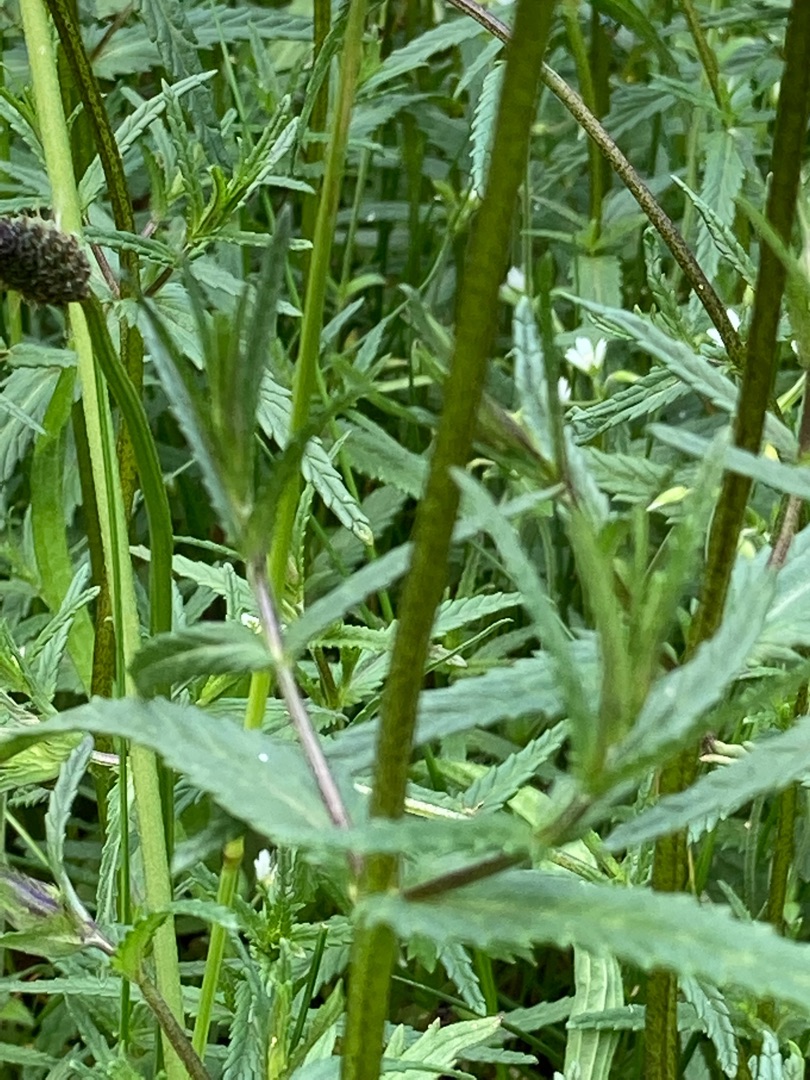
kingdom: Plantae
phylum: Tracheophyta
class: Magnoliopsida
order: Lamiales
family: Orobanchaceae
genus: Rhinanthus
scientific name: Rhinanthus minor
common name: Liden skjaller
